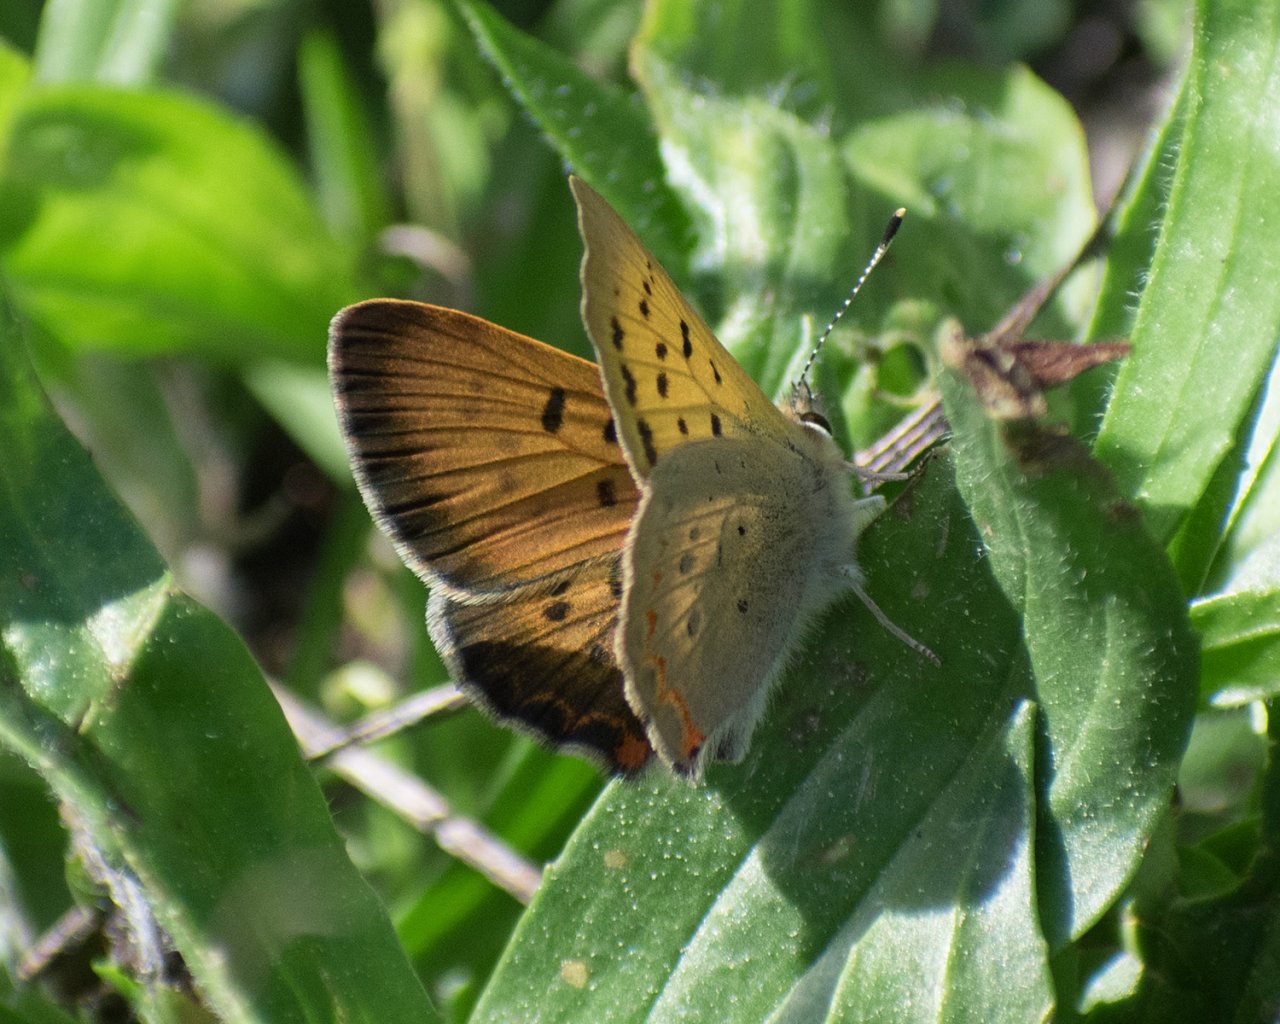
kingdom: Animalia
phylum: Arthropoda
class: Insecta
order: Lepidoptera
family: Sesiidae
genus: Sesia
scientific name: Sesia Lycaena helloides
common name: Purplish Copper
